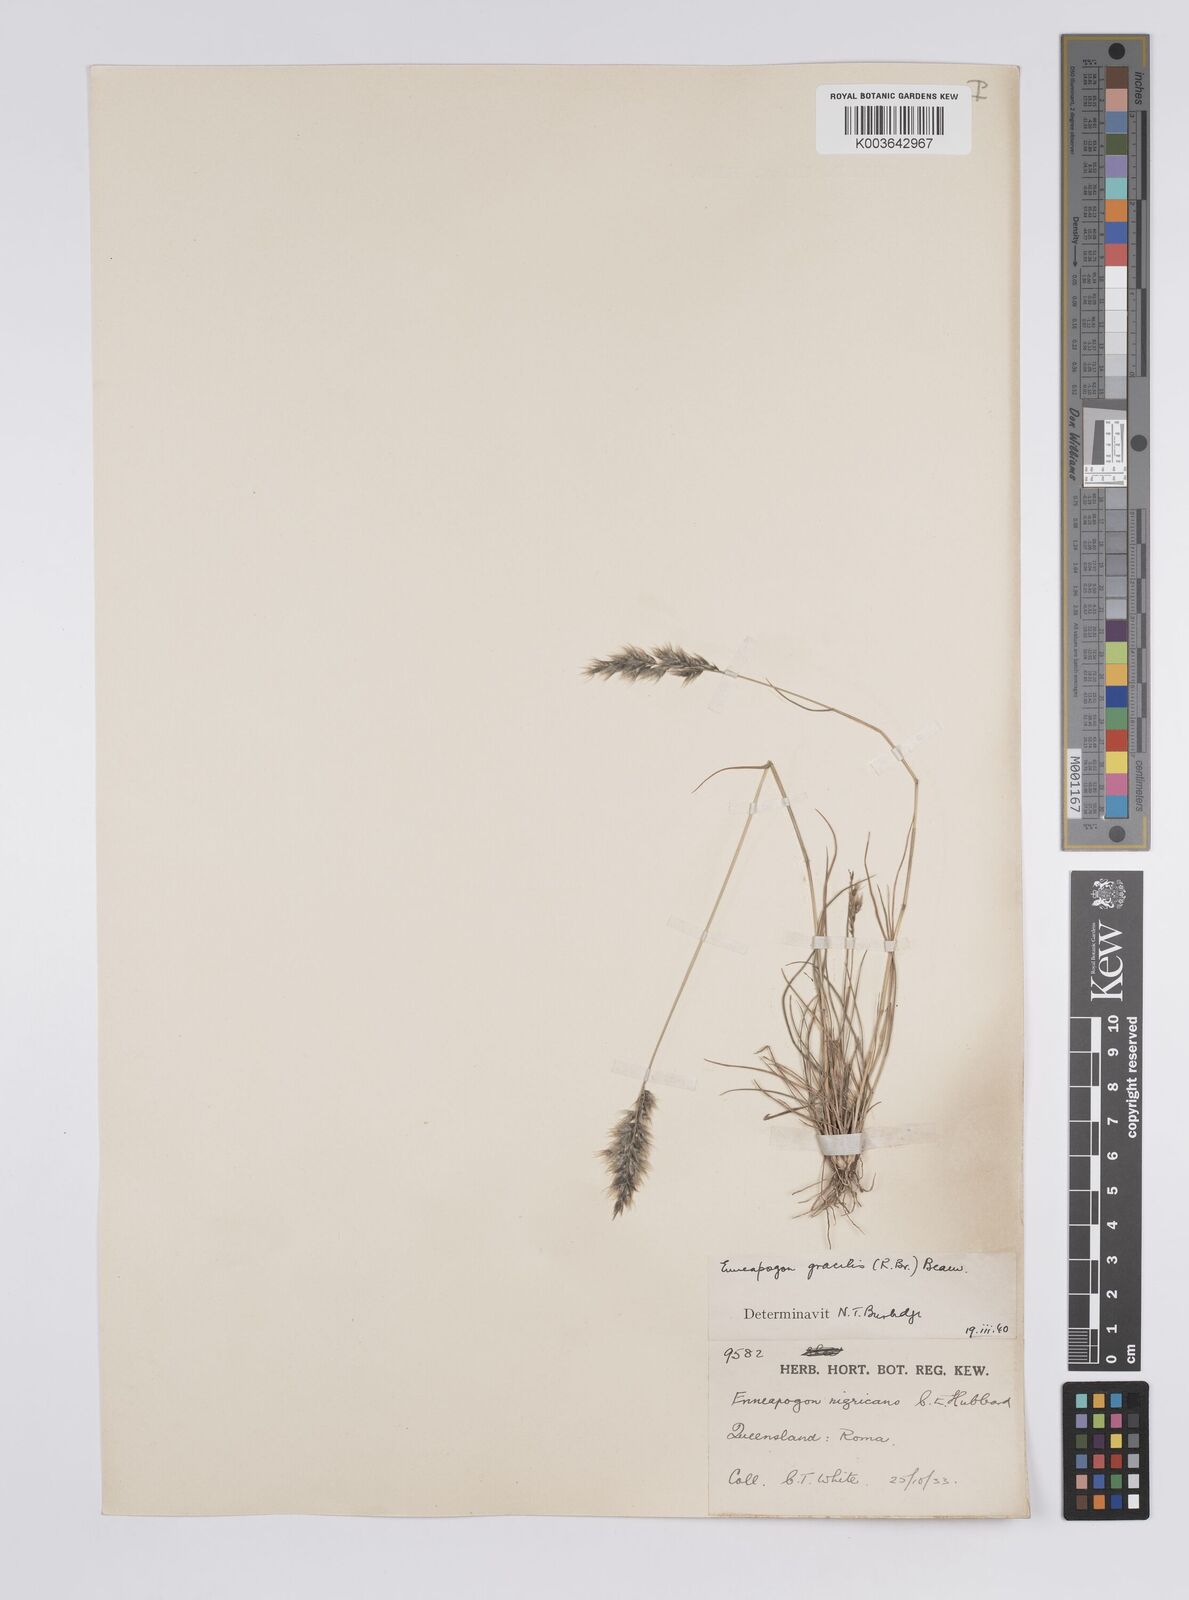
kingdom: Plantae
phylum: Tracheophyta
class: Liliopsida
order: Poales
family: Poaceae
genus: Enneapogon
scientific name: Enneapogon gracilis
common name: Slender bottle-washers
